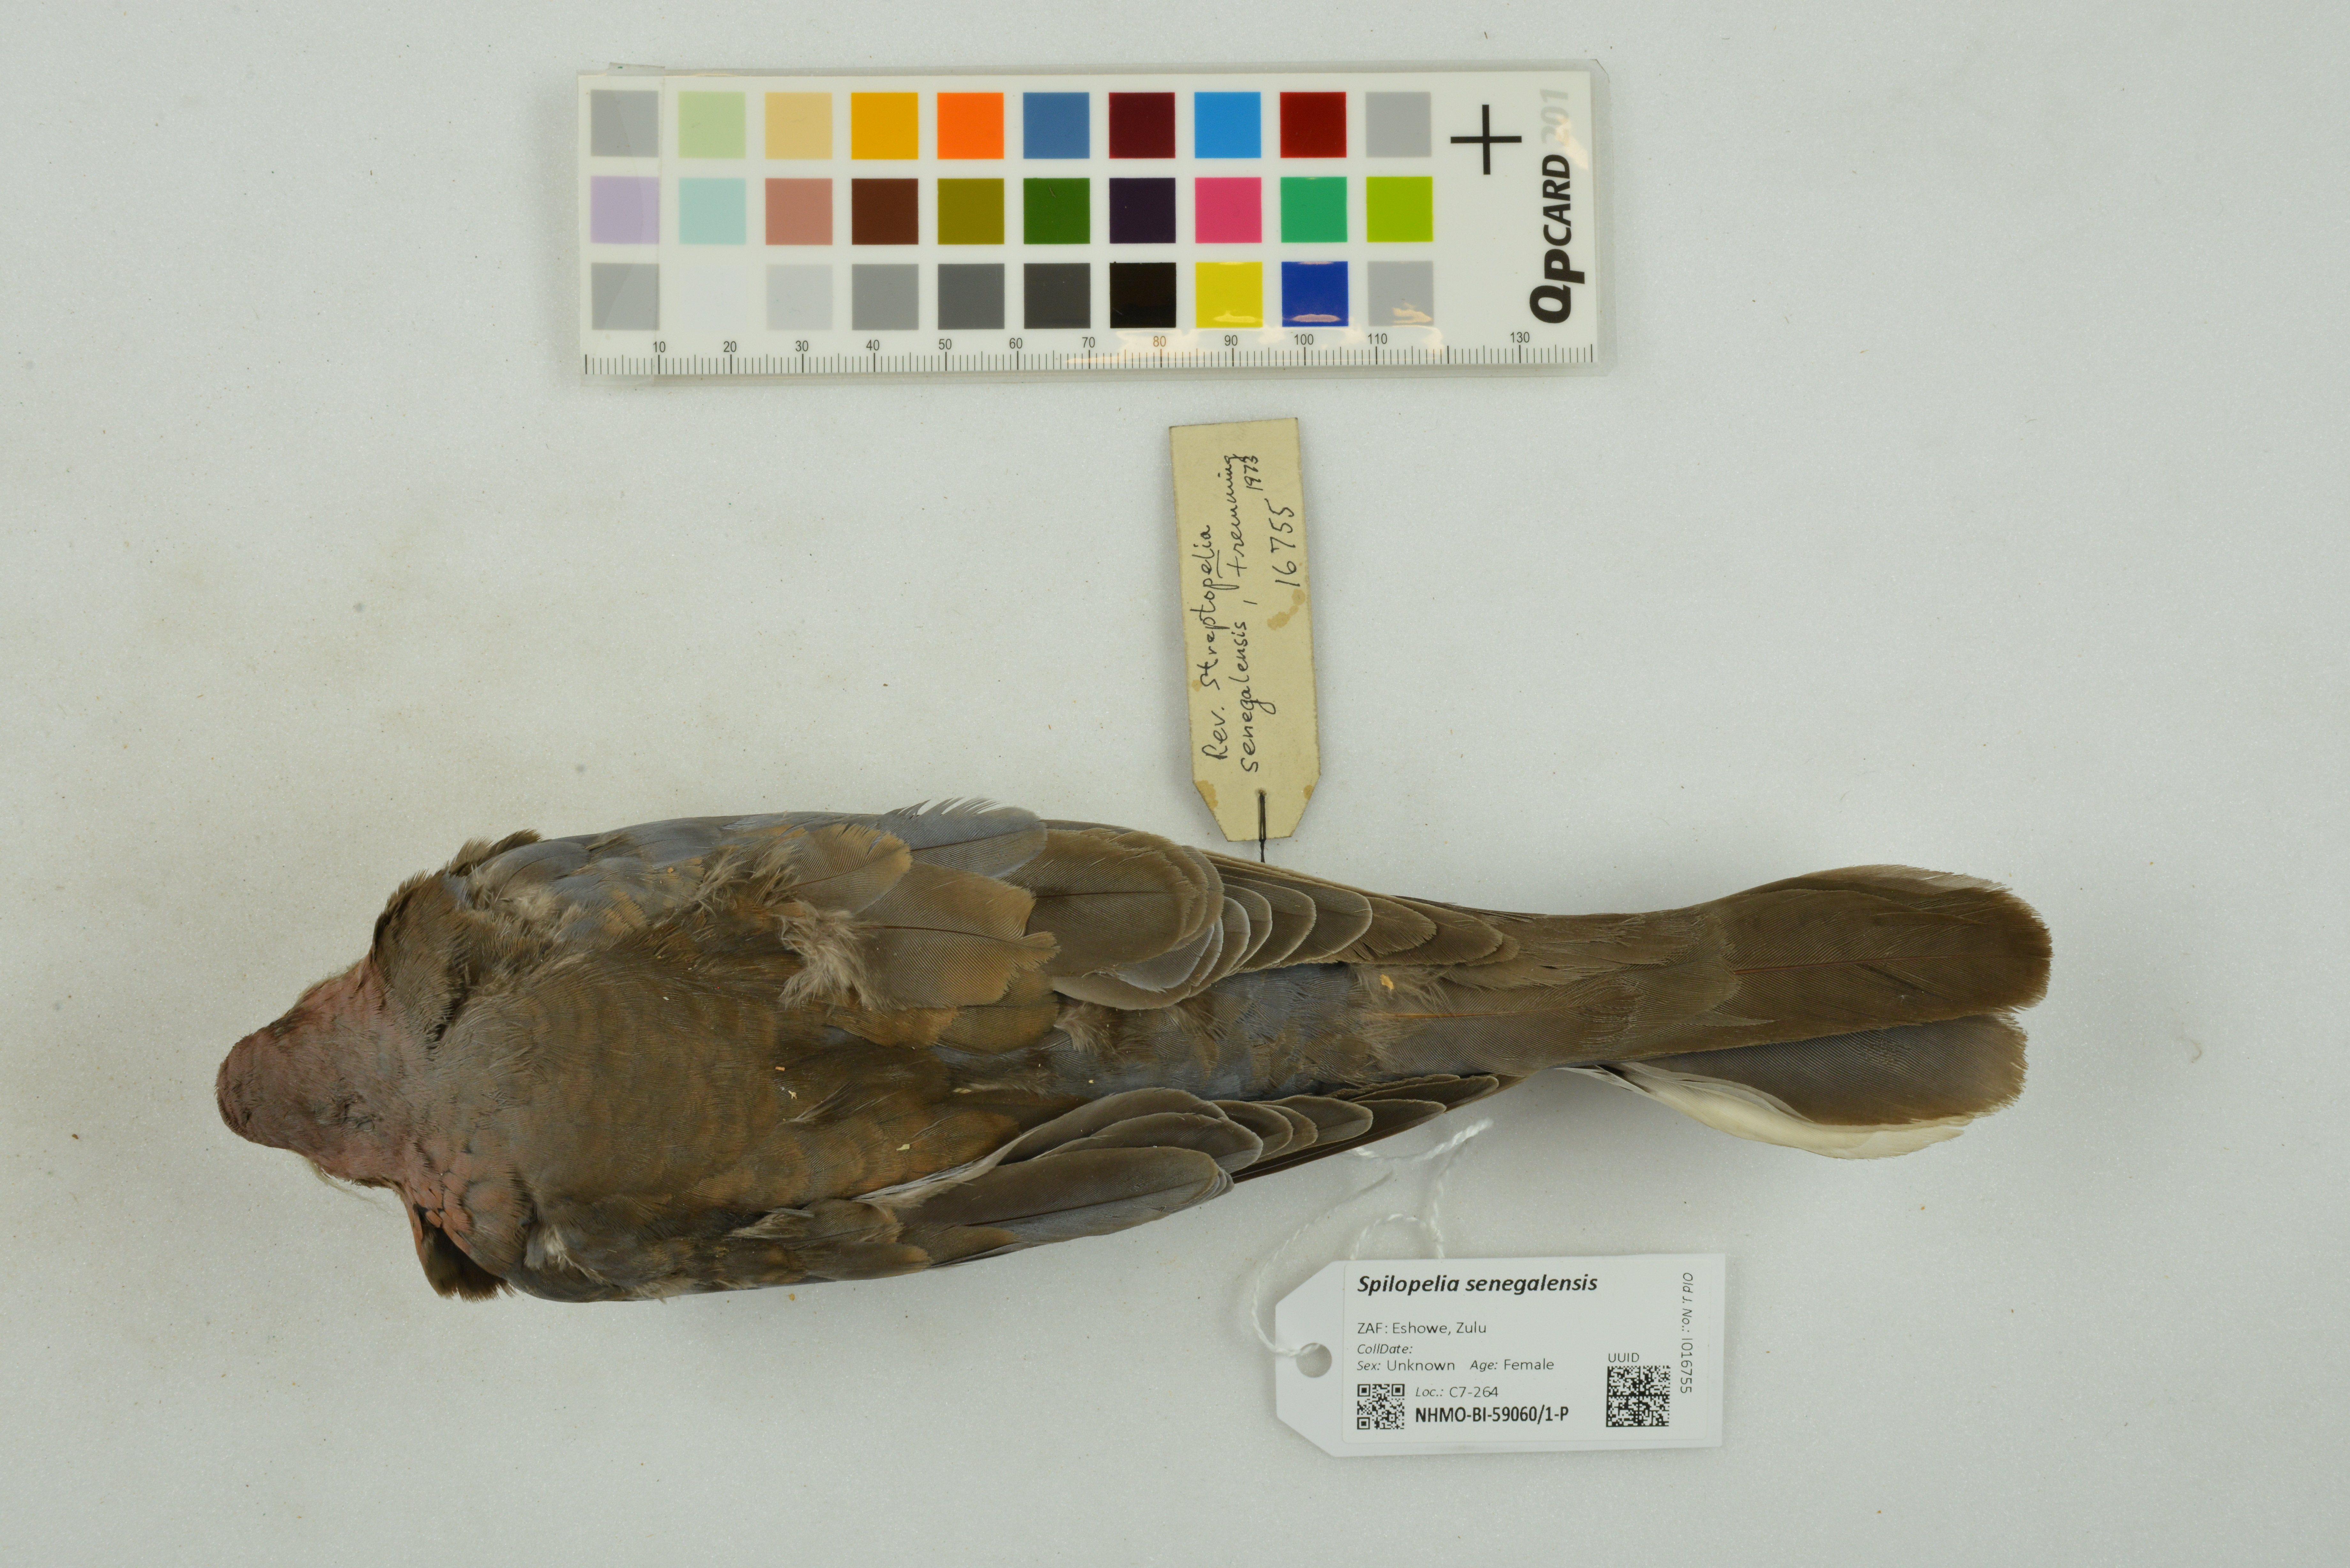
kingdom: Animalia
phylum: Chordata
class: Aves
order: Columbiformes
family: Columbidae
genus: Spilopelia
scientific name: Spilopelia senegalensis
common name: Laughing dove
